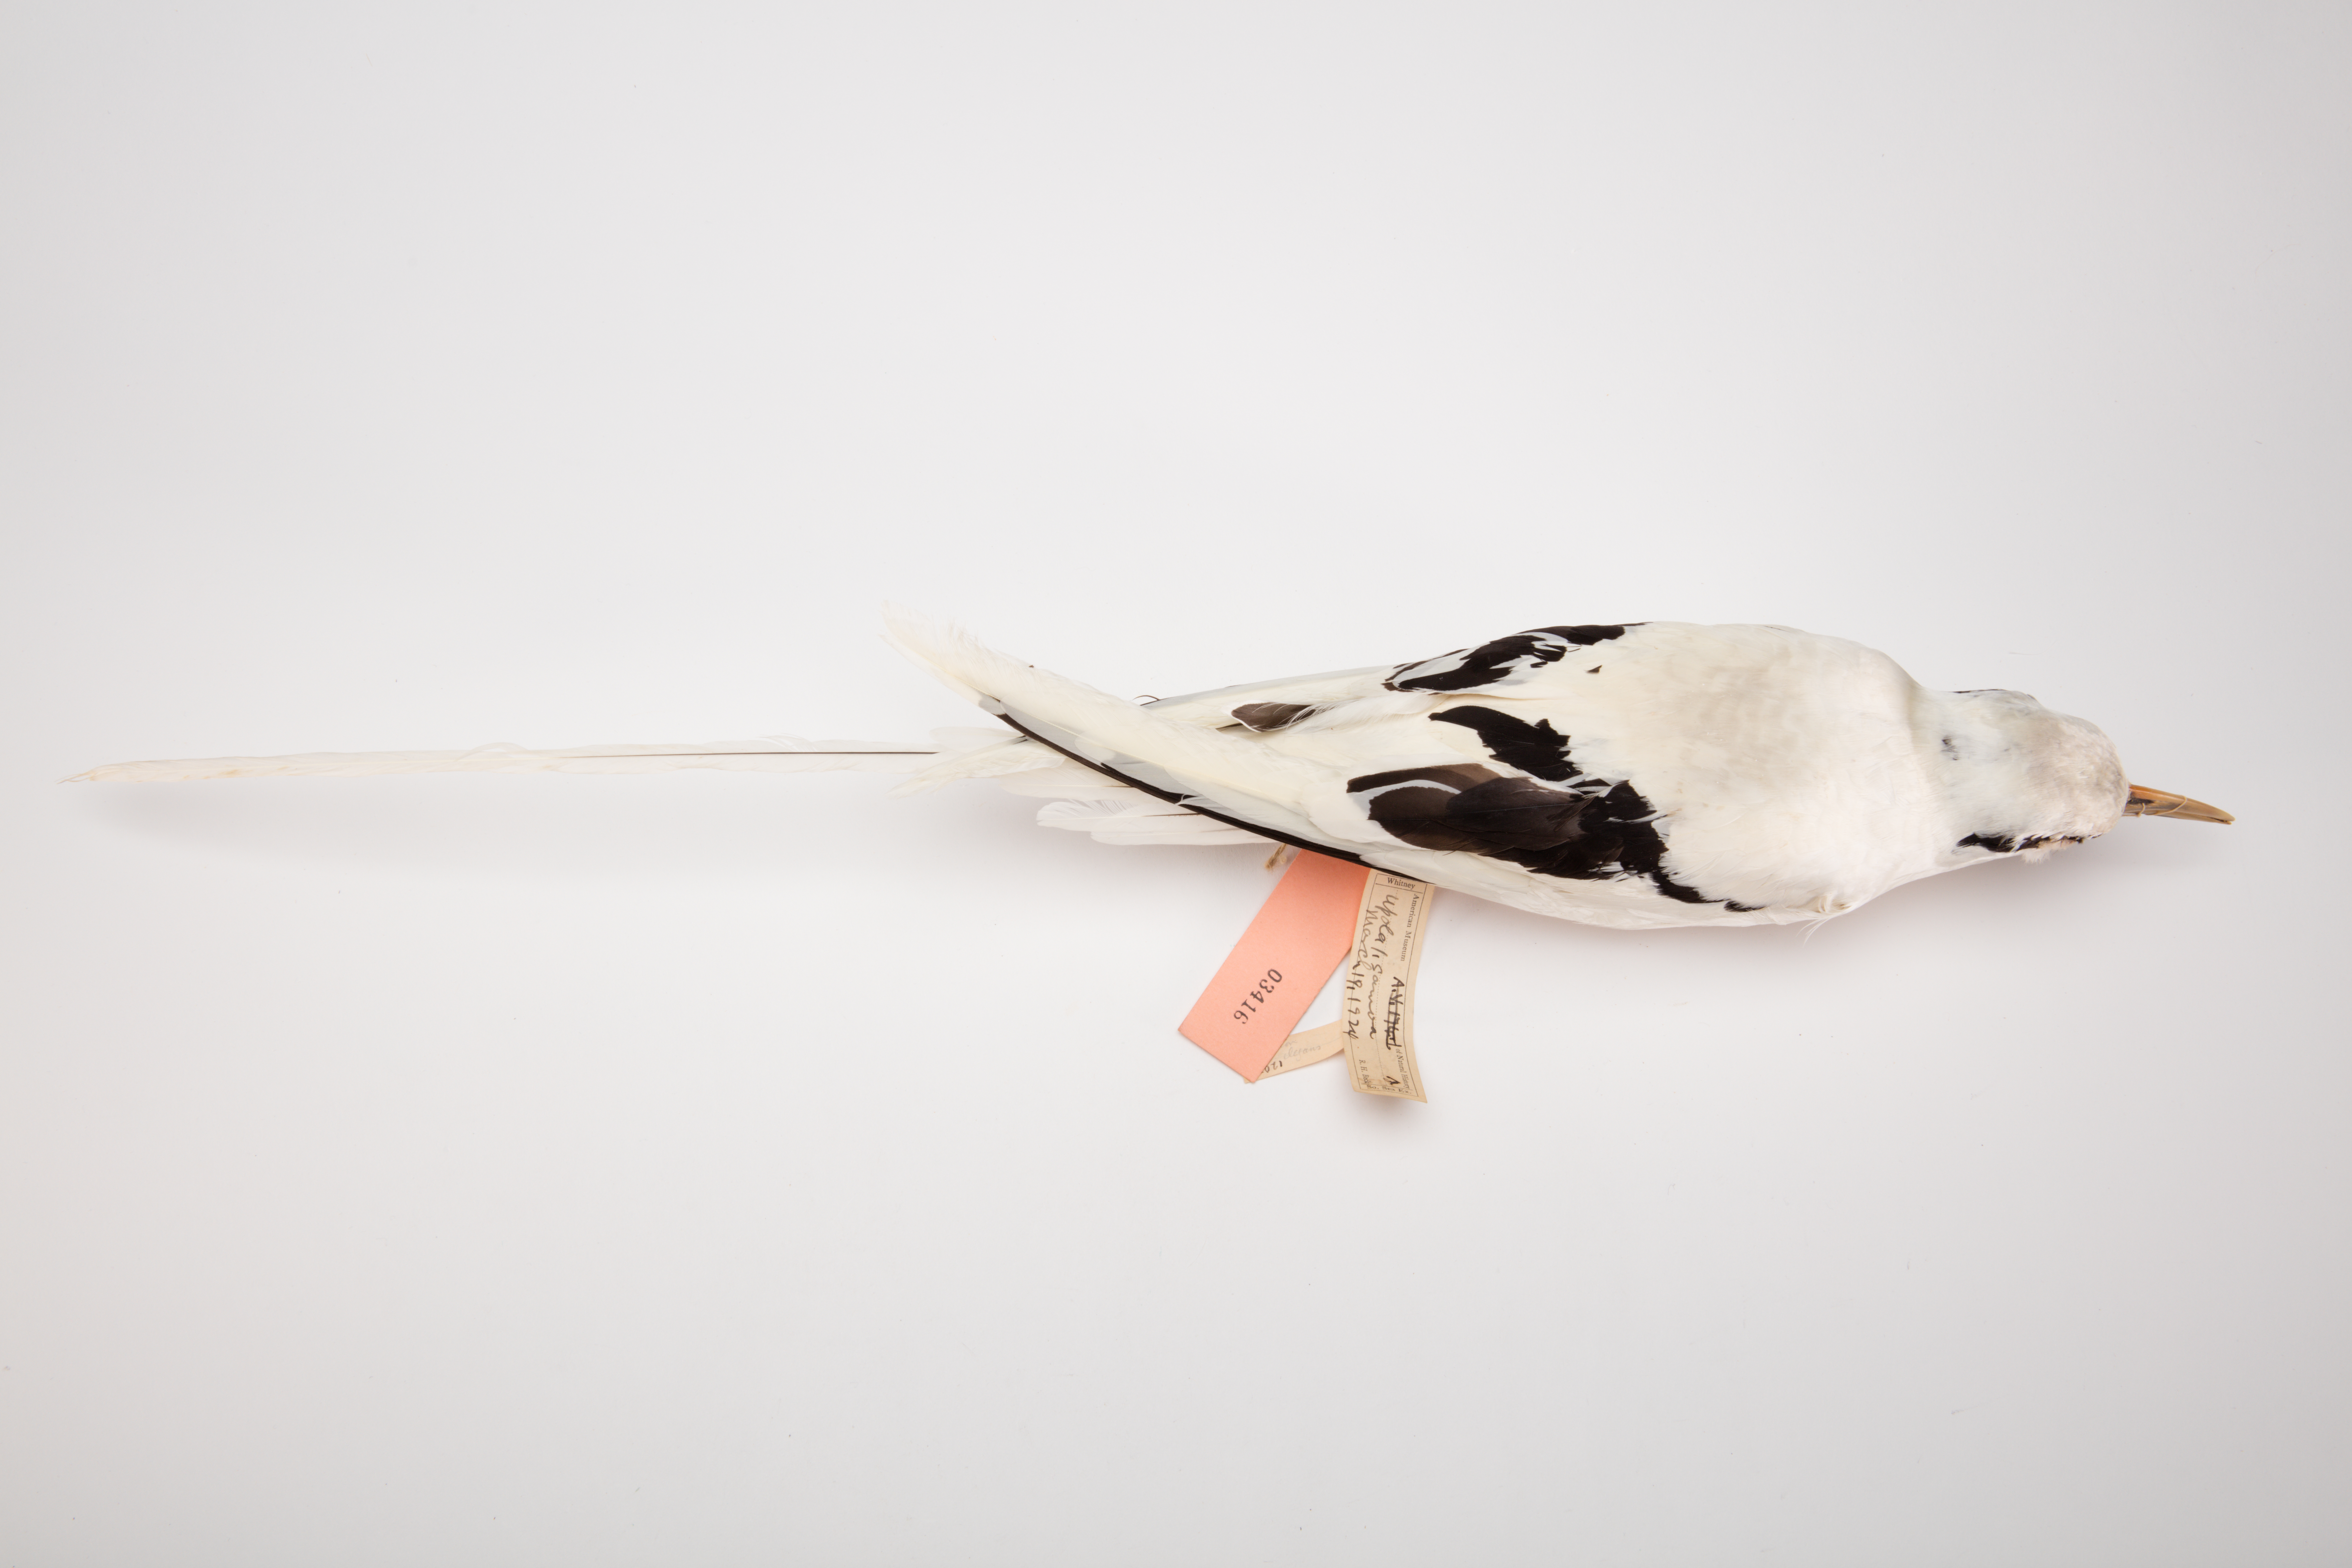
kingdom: Animalia
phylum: Chordata
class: Aves
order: Phaethontiformes
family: Phaethontidae
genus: Phaethon
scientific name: Phaethon lepturus
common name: White-tailed tropicbird
